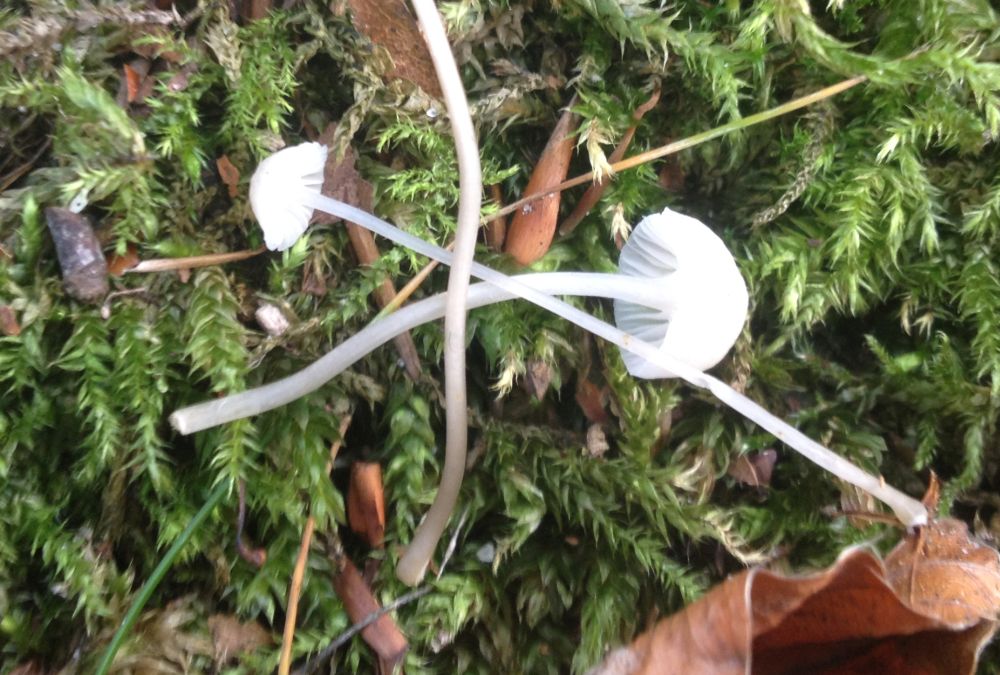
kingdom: Fungi
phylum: Basidiomycota
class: Agaricomycetes
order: Agaricales
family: Mycenaceae
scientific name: Mycenaceae
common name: huesvampfamilien
